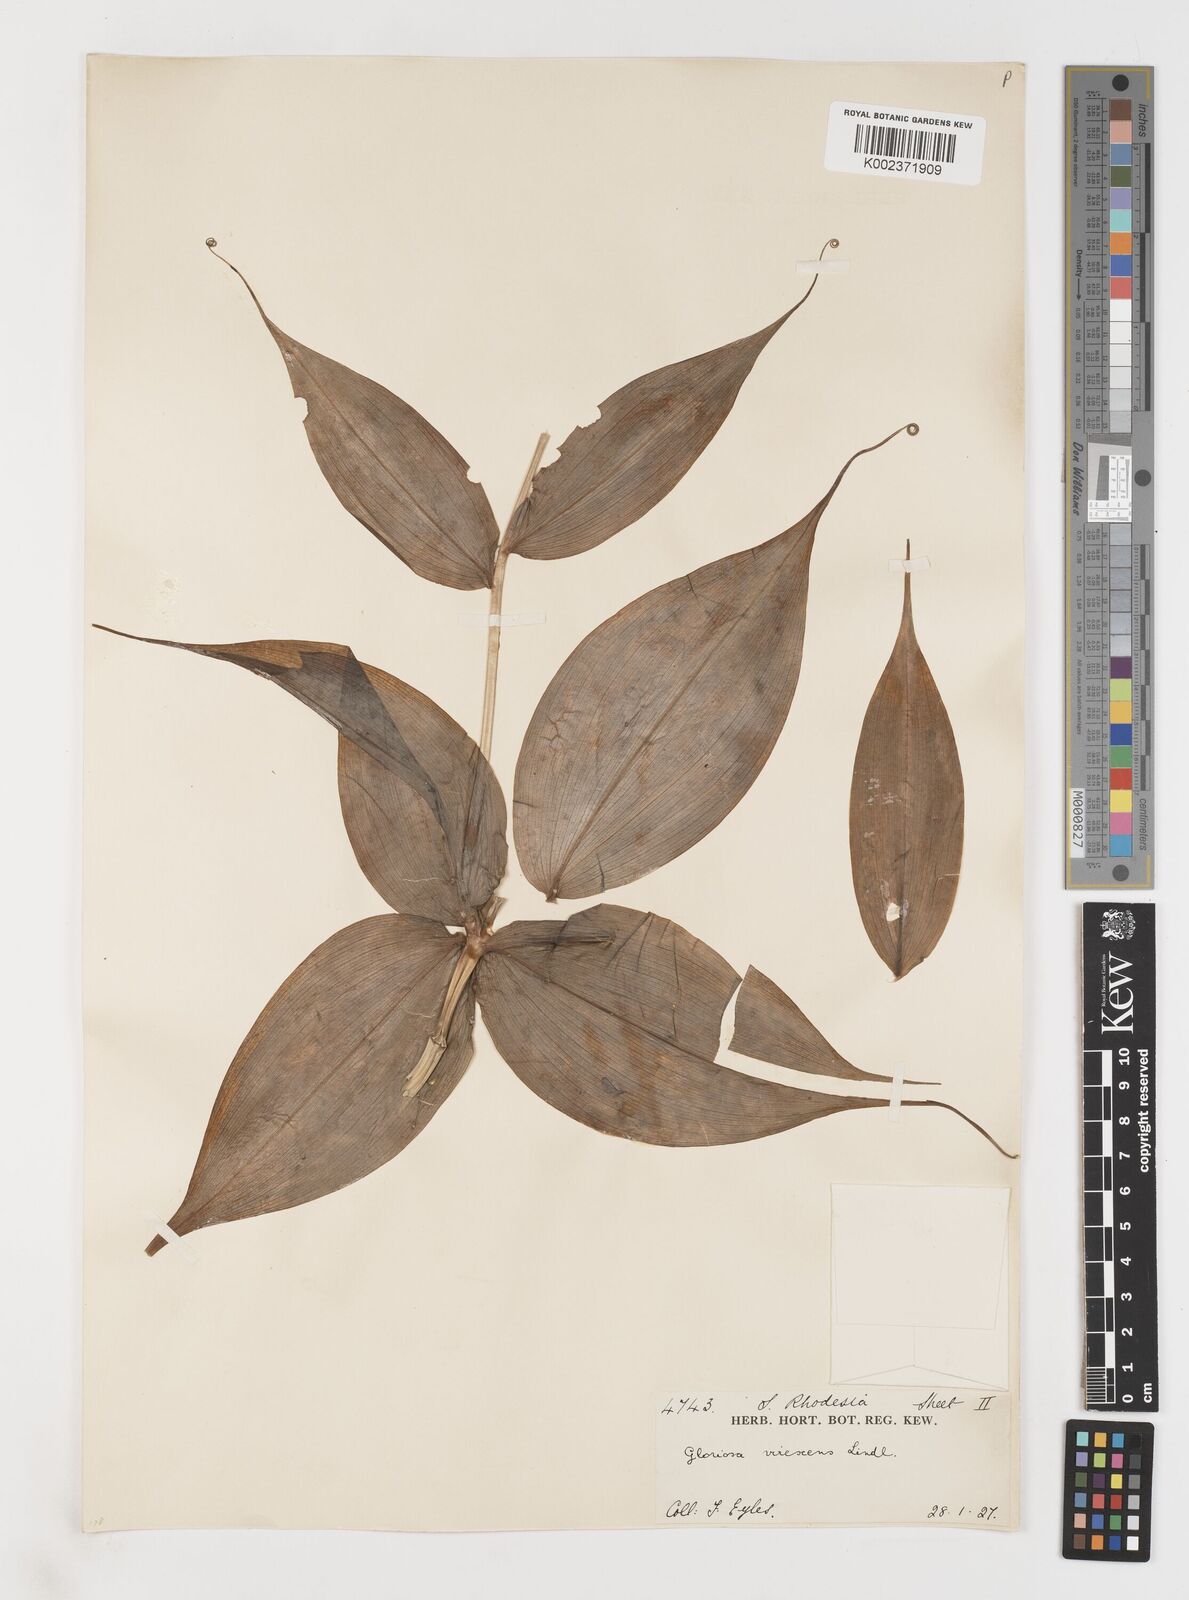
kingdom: Plantae
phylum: Tracheophyta
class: Liliopsida
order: Liliales
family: Colchicaceae
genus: Gloriosa
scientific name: Gloriosa simplex
